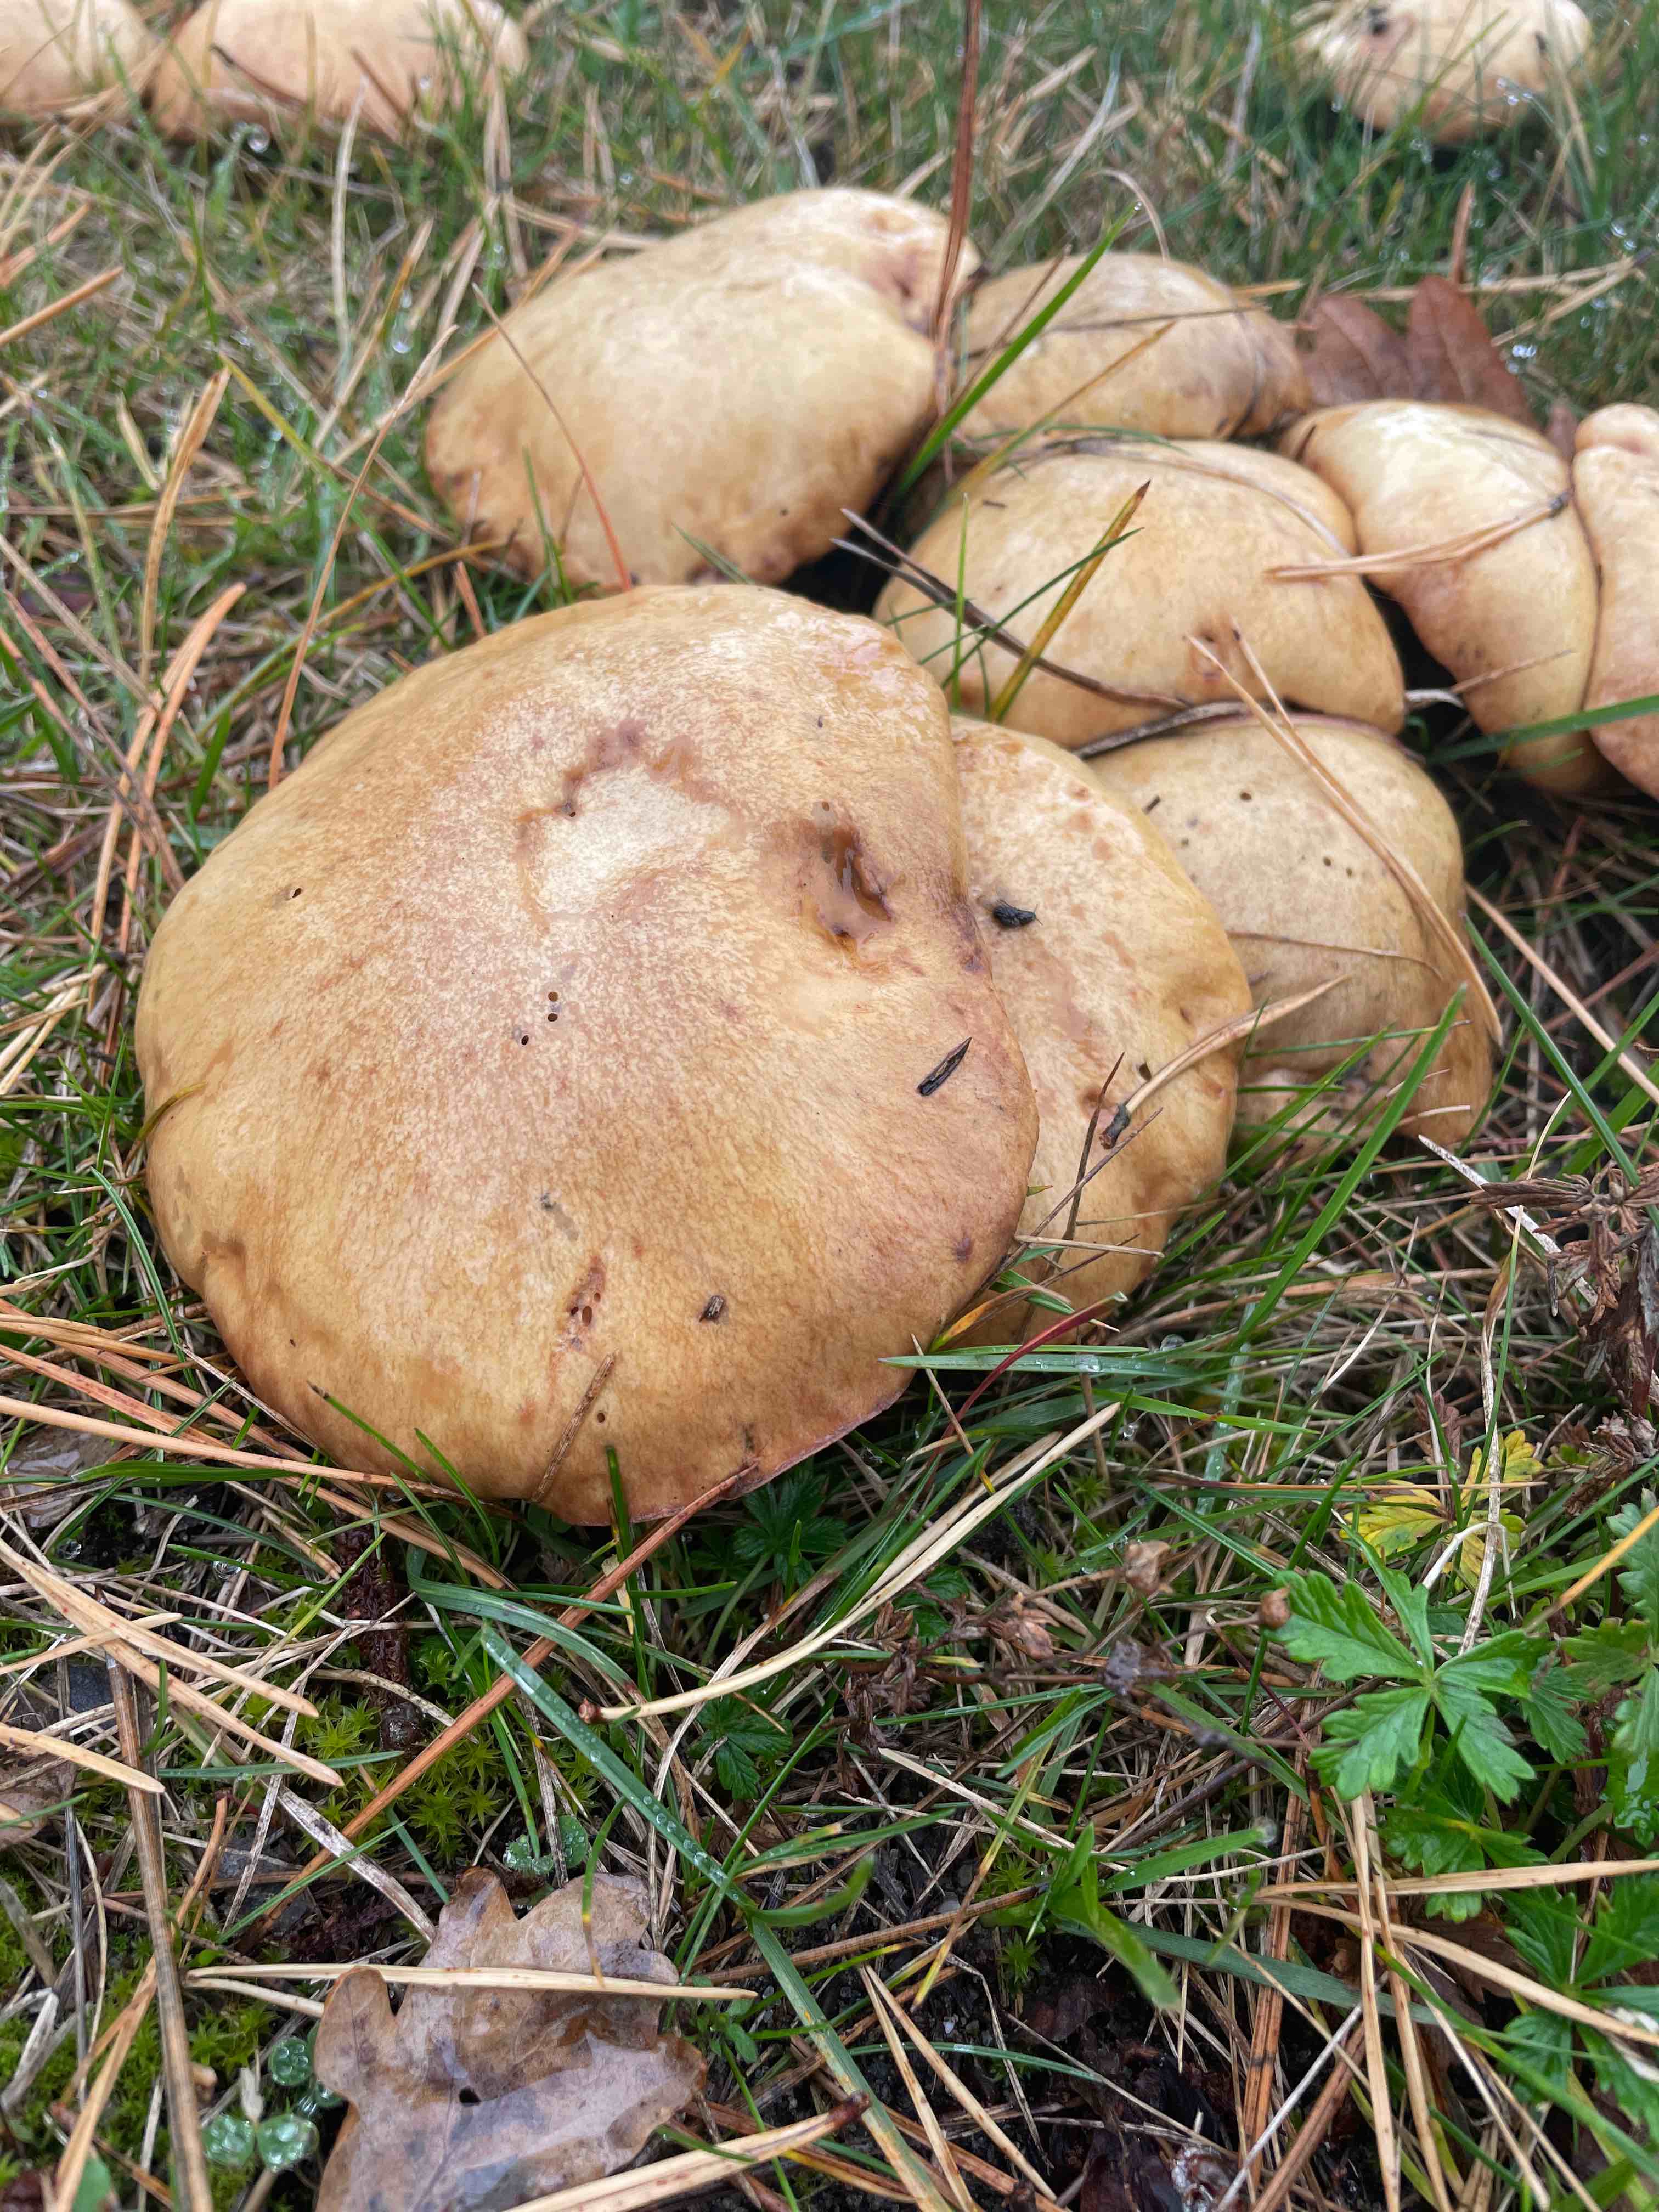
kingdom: Fungi
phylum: Basidiomycota
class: Agaricomycetes
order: Boletales
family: Suillaceae
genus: Suillus
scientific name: Suillus granulatus
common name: kornet slimrørhat
